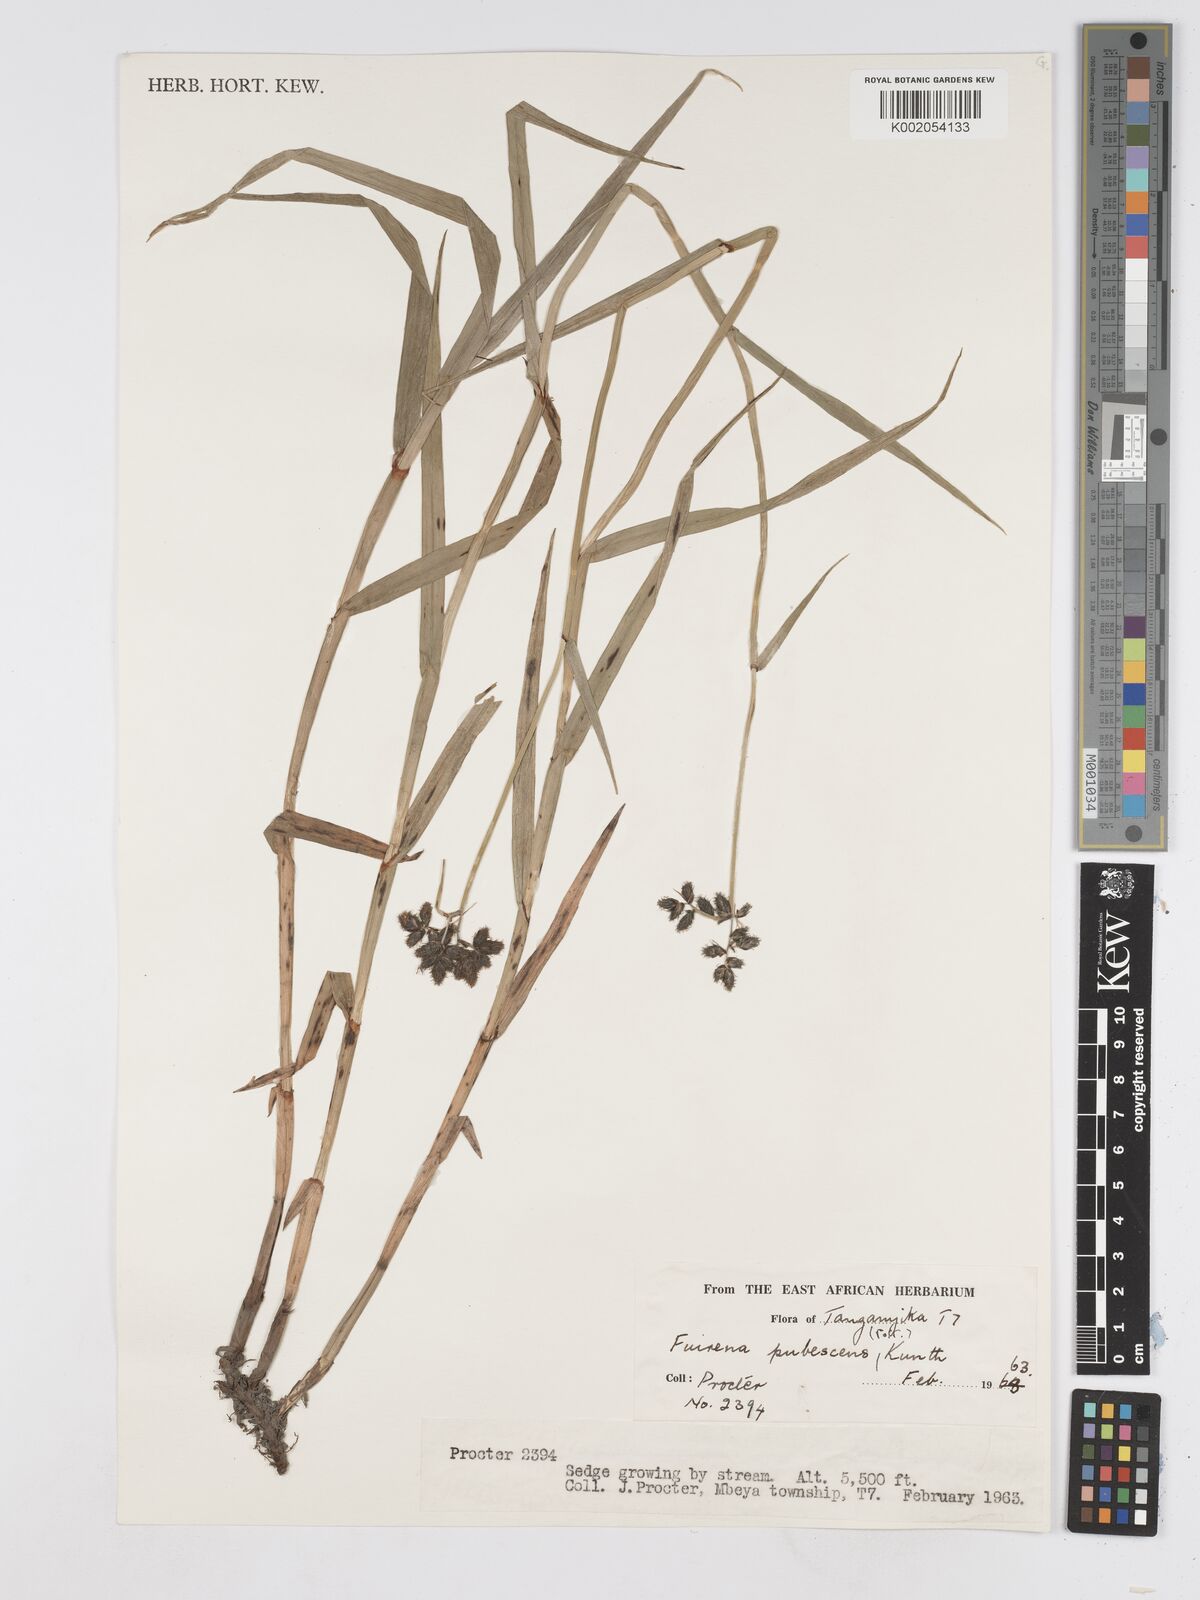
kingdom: Plantae
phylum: Tracheophyta
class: Liliopsida
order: Poales
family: Cyperaceae
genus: Fuirena
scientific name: Fuirena pubescens
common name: Hairy sedge
